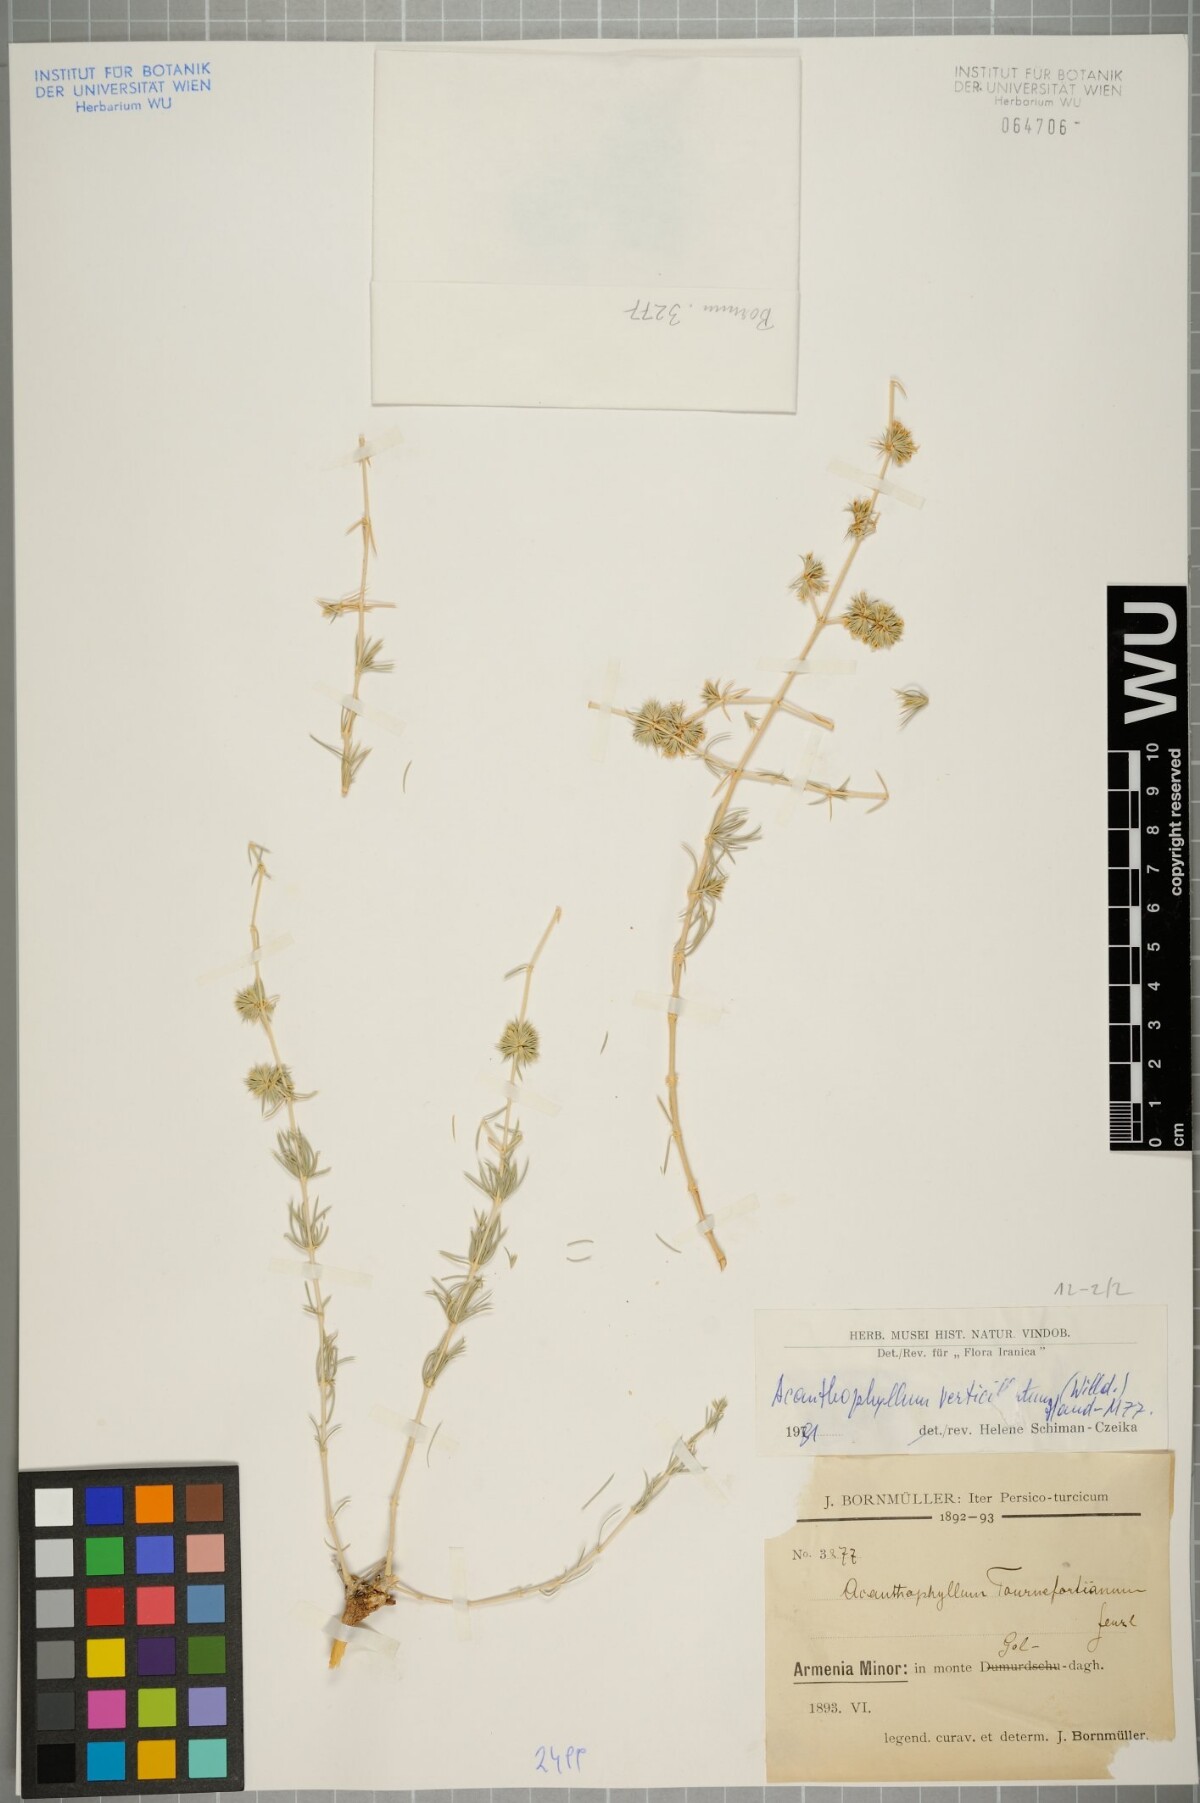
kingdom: Plantae
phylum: Tracheophyta
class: Magnoliopsida
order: Caryophyllales
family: Caryophyllaceae
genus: Acanthophyllum
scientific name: Acanthophyllum verticillatum
